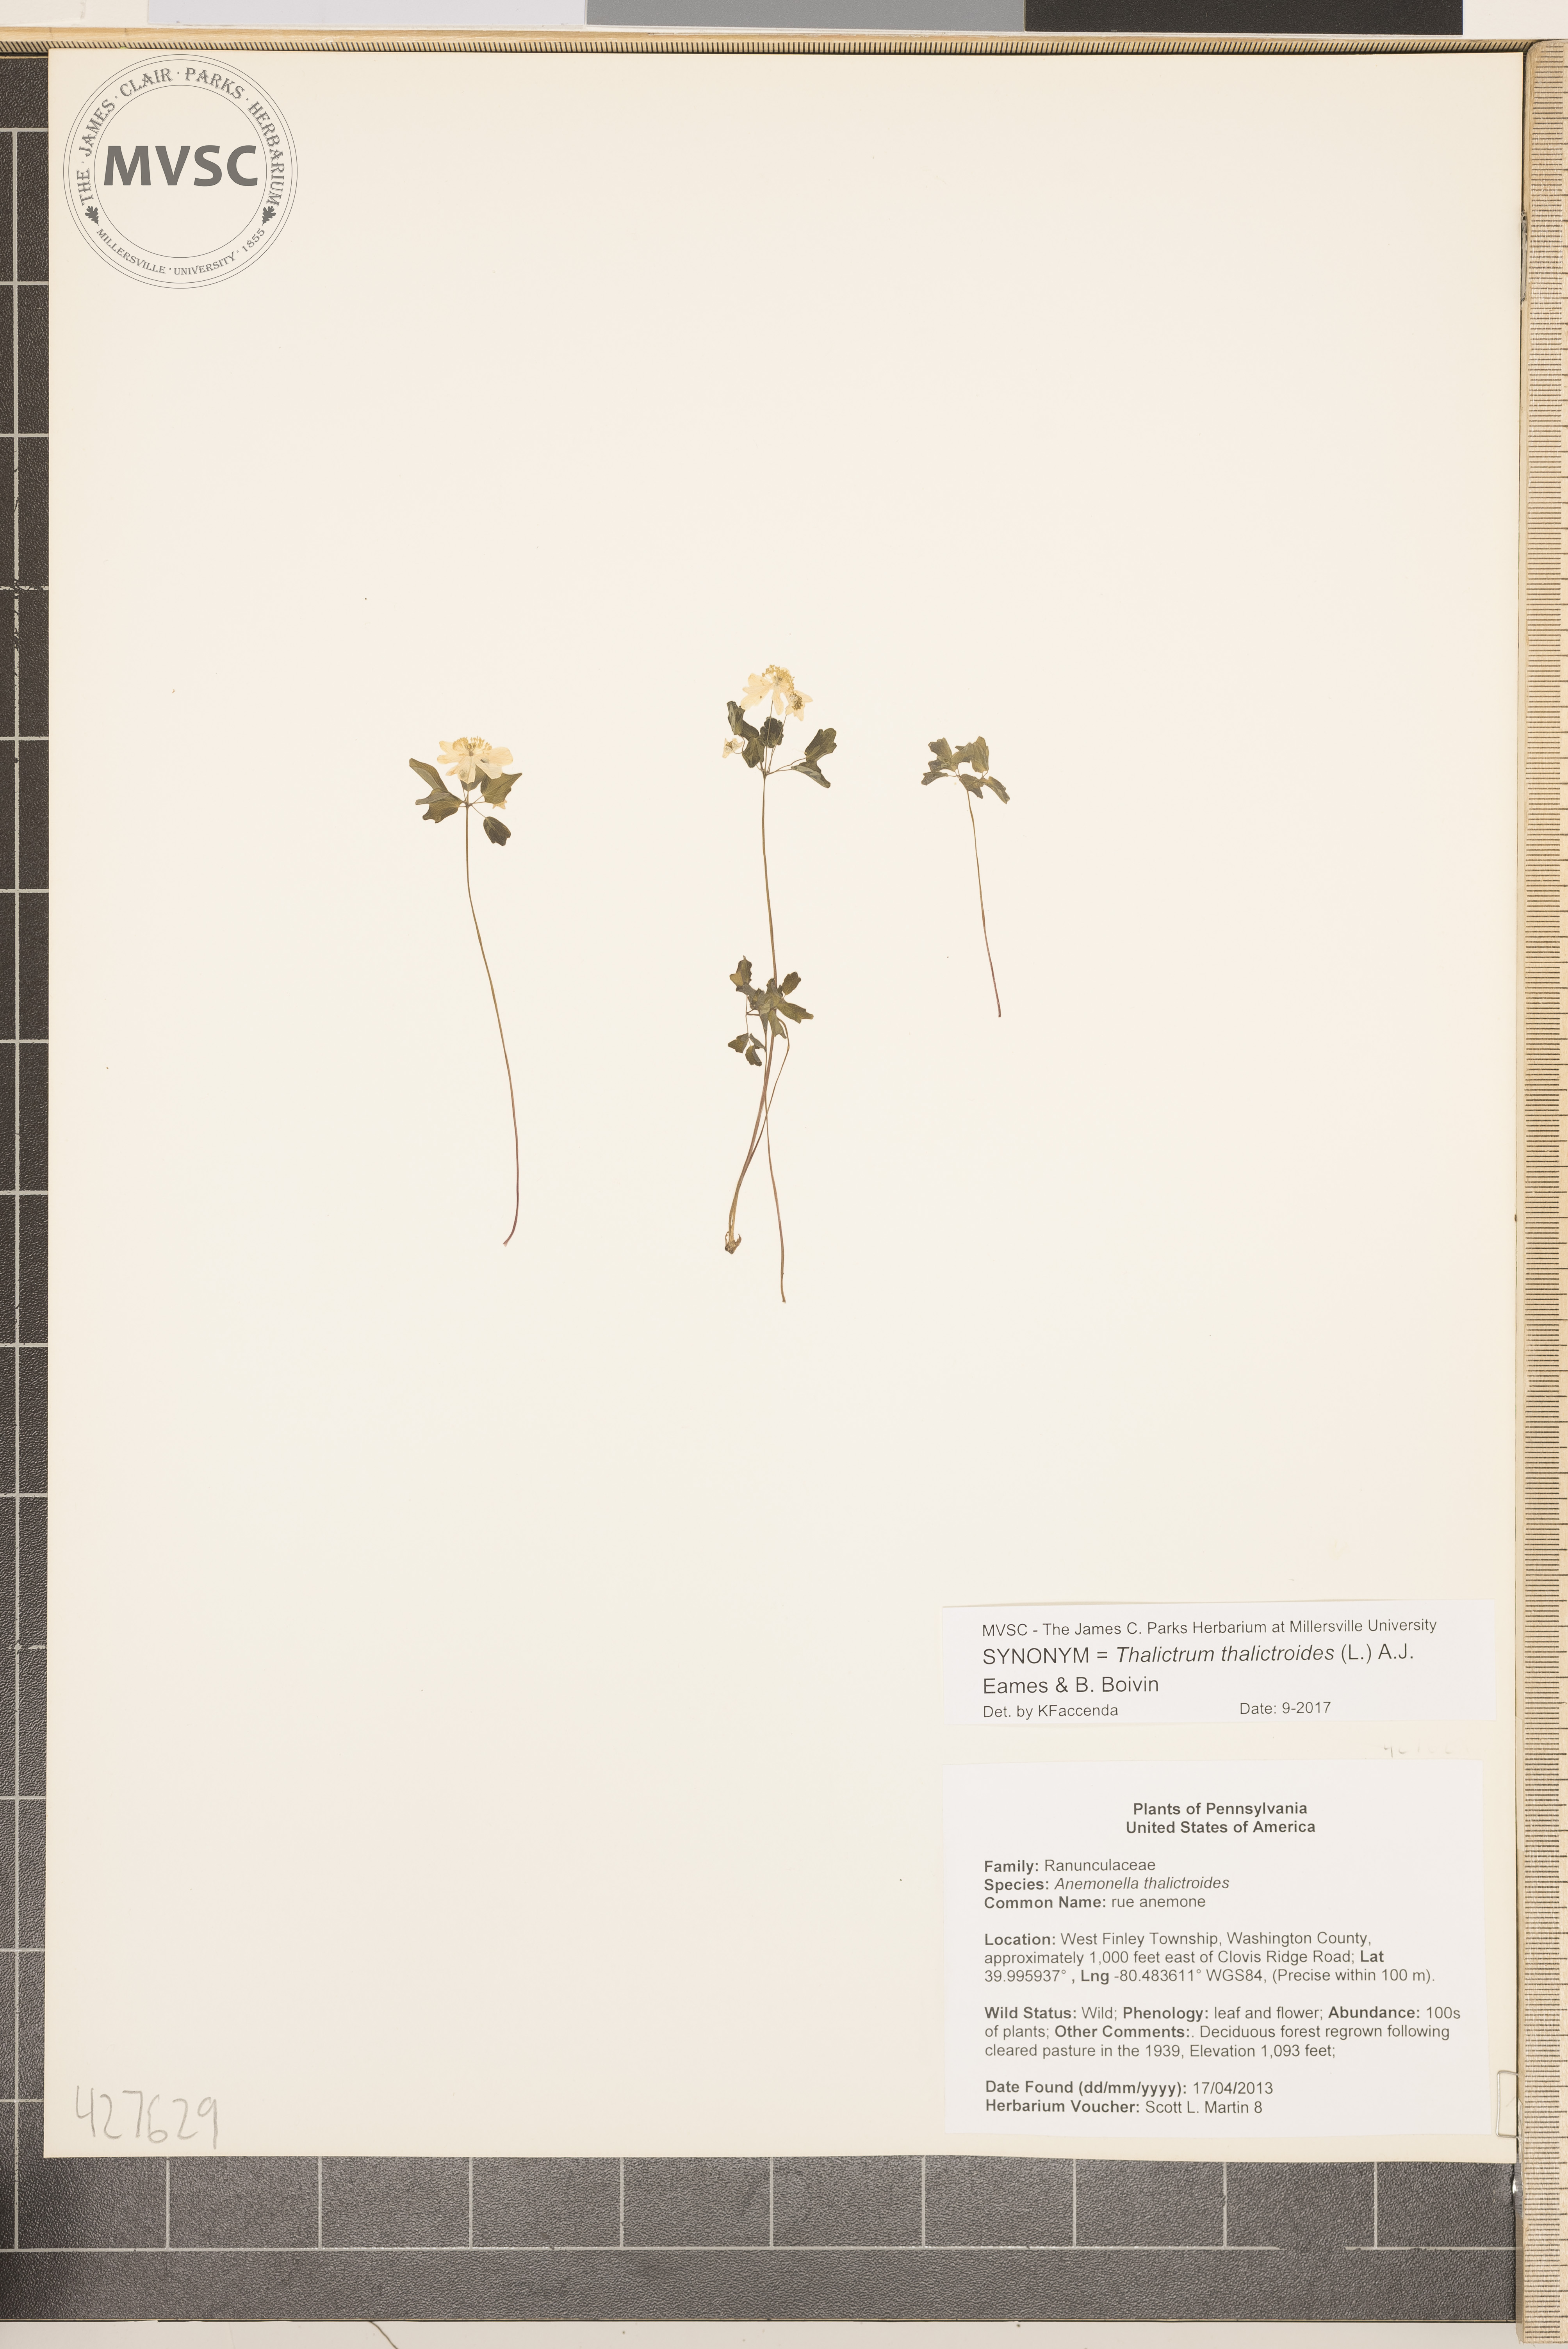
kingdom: Plantae
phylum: Tracheophyta
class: Magnoliopsida
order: Ranunculales
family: Ranunculaceae
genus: Thalictrum
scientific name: Thalictrum thalictroides
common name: Rue anemone
